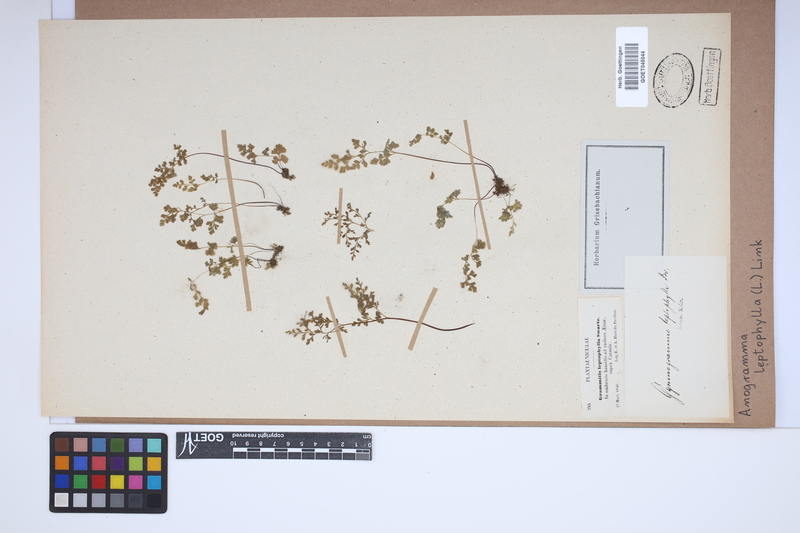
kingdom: Plantae
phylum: Tracheophyta
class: Polypodiopsida
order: Polypodiales
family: Pteridaceae
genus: Anogramma
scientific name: Anogramma leptophylla
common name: Jersey fern
